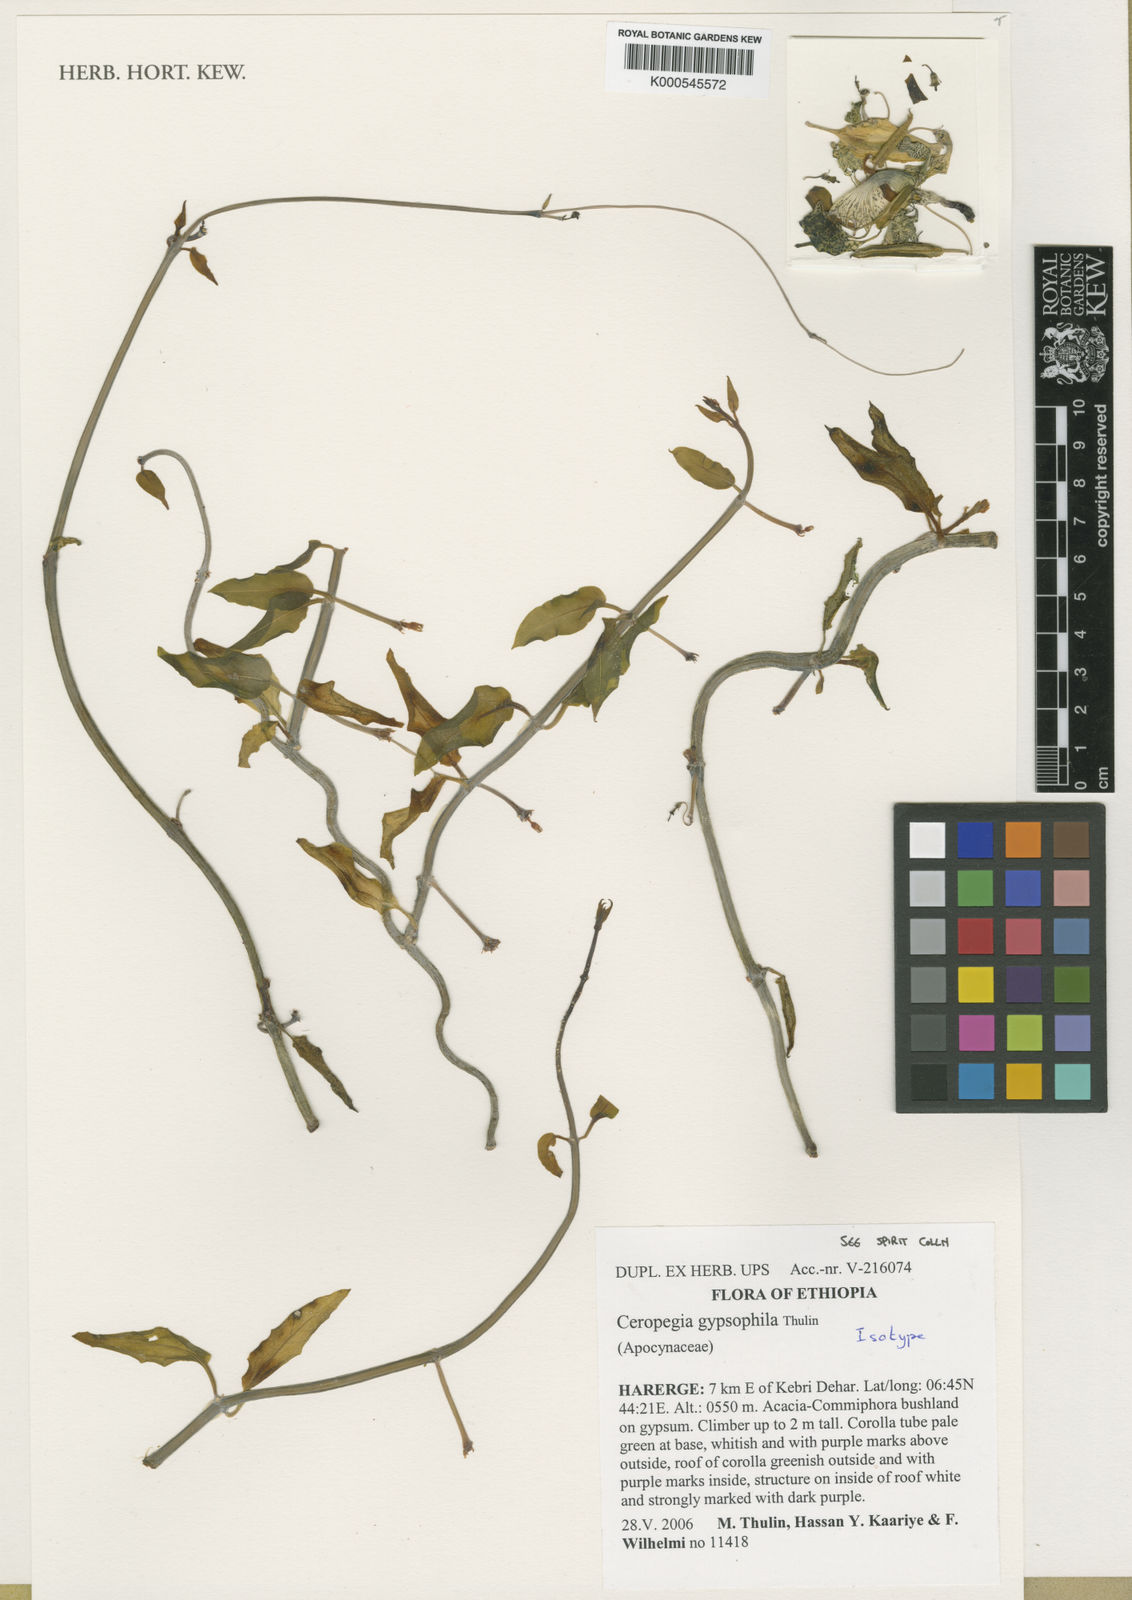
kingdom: Plantae
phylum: Tracheophyta
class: Magnoliopsida
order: Gentianales
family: Apocynaceae
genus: Ceropegia
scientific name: Ceropegia gypsophila
